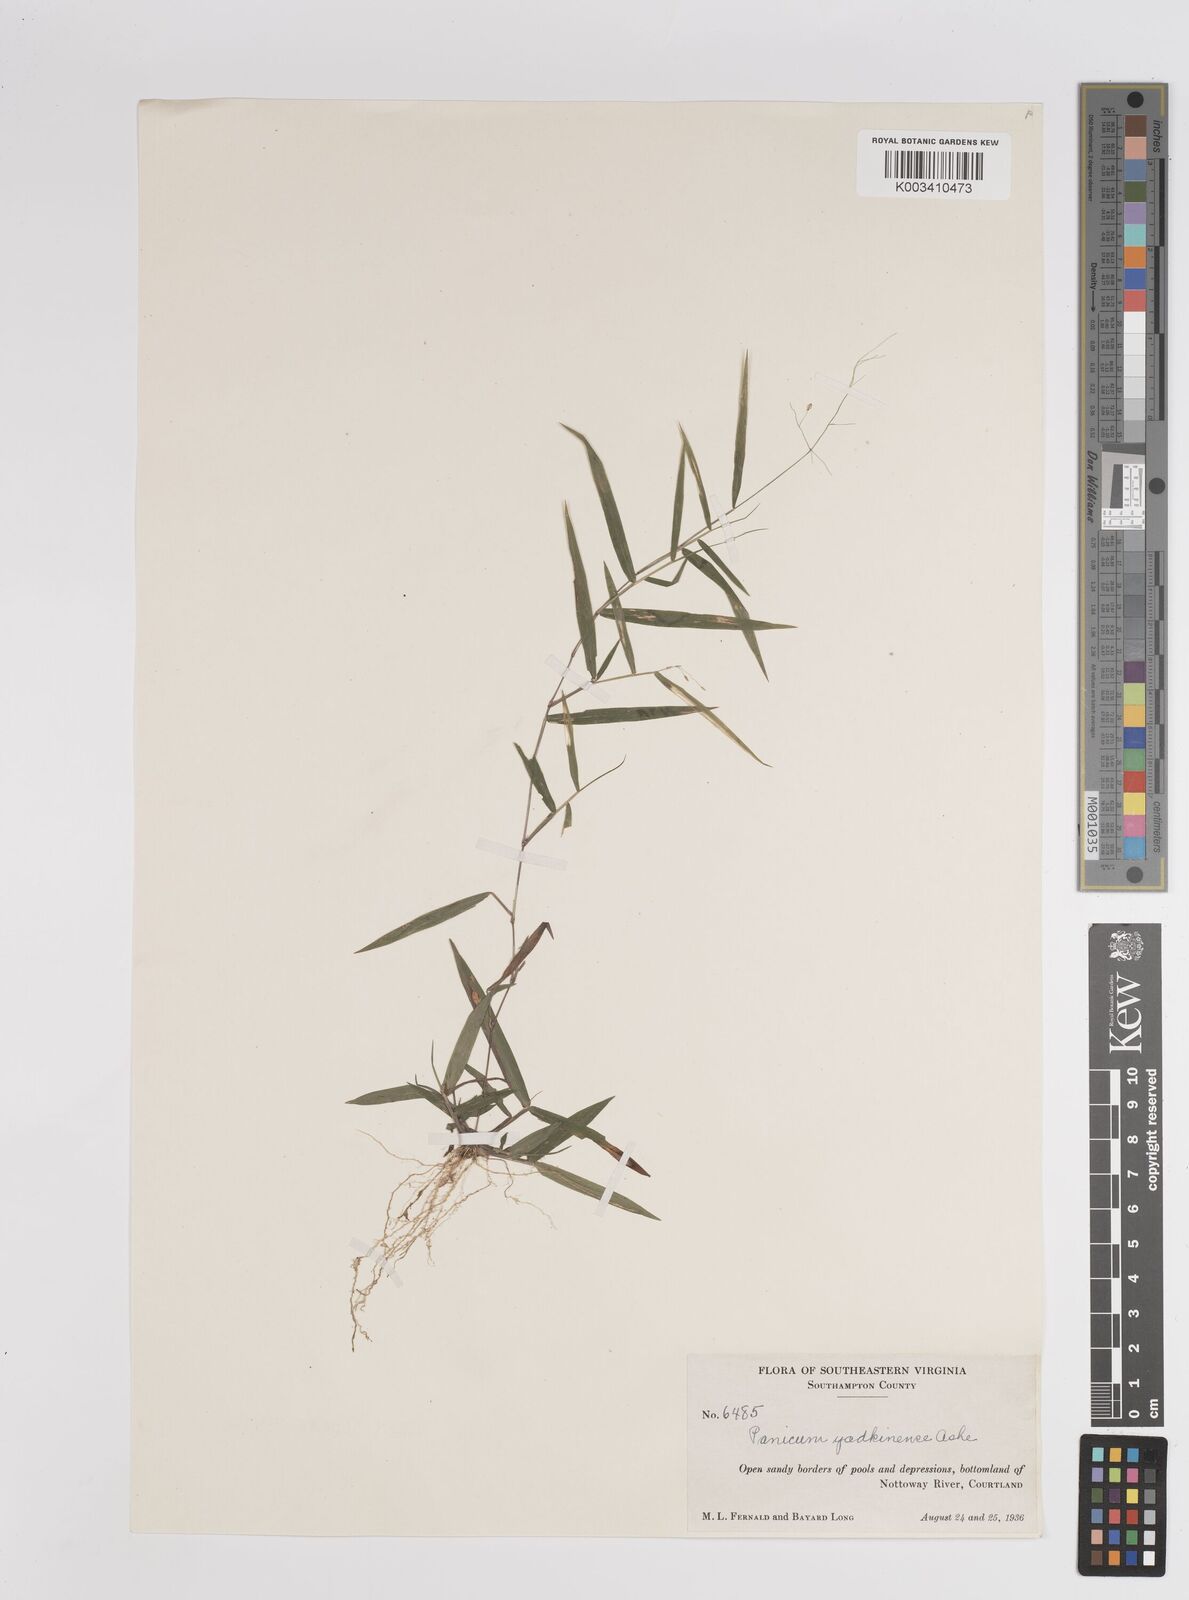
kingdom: Plantae
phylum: Tracheophyta
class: Liliopsida
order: Poales
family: Poaceae
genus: Dichanthelium
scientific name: Dichanthelium dichotomum
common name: Cypress panicgrass
